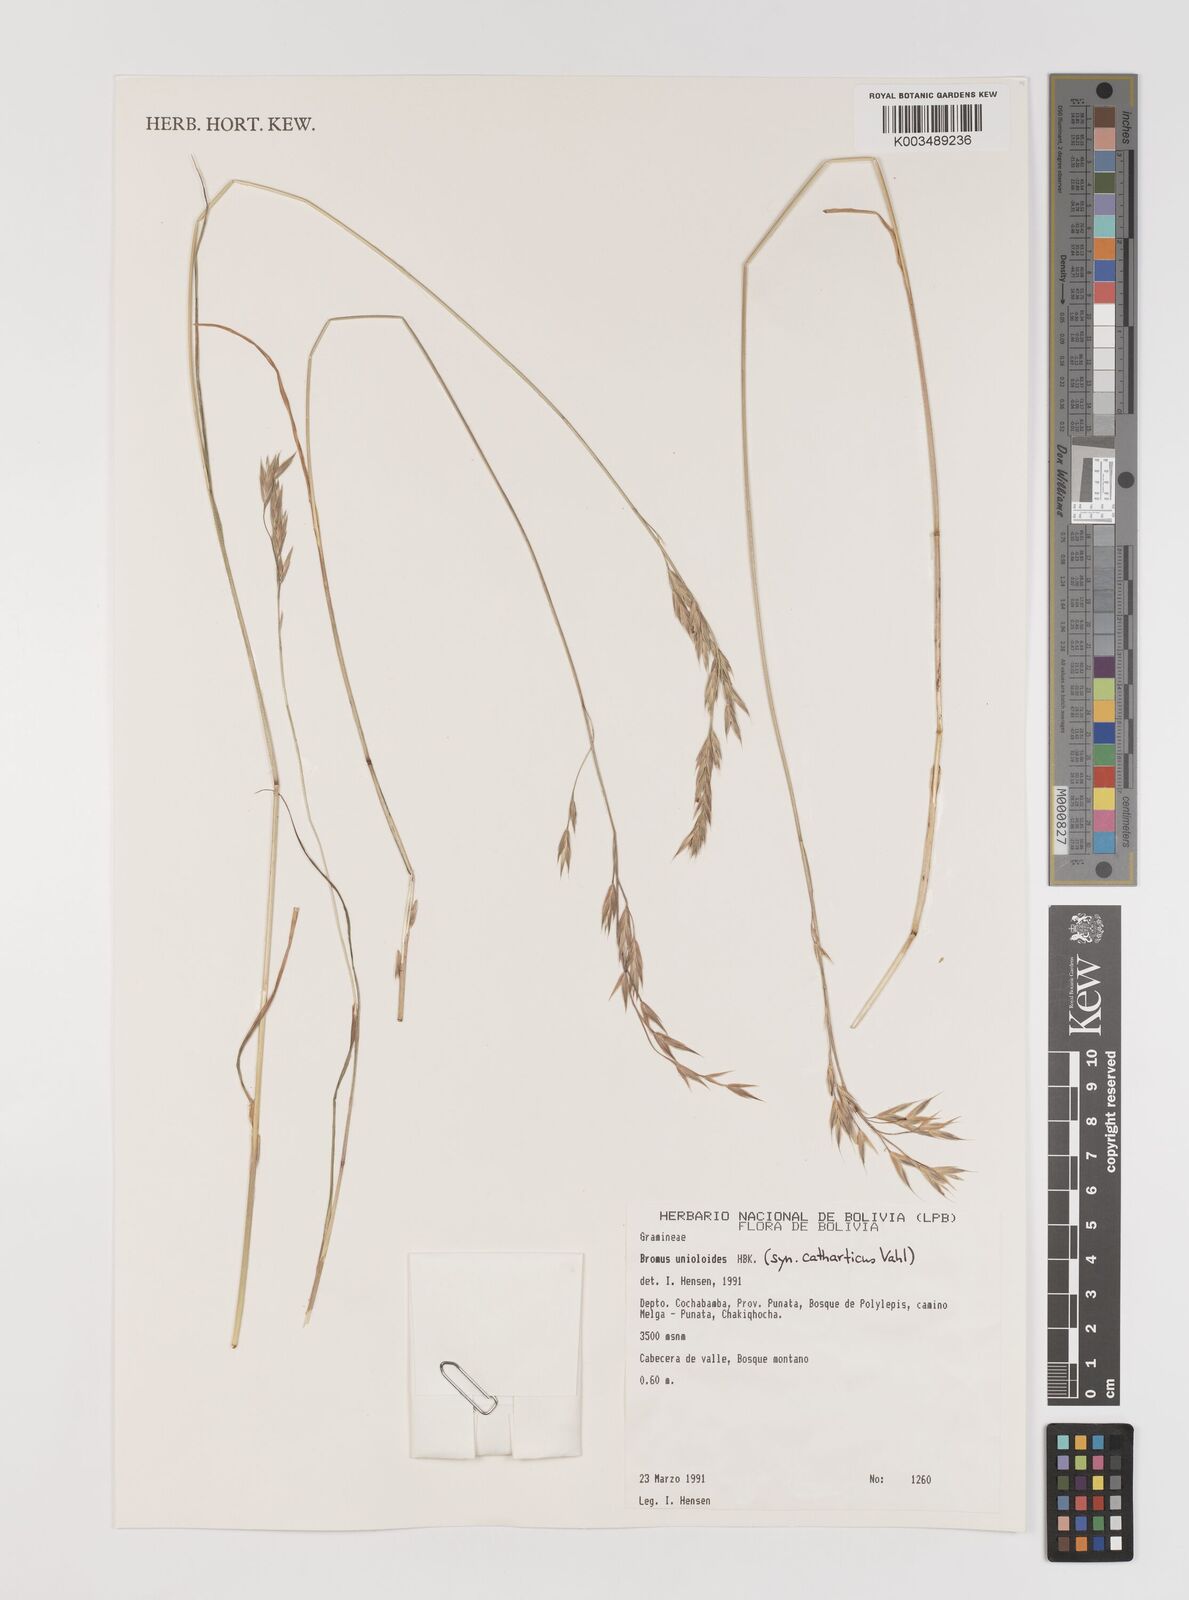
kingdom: Plantae
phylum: Tracheophyta
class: Liliopsida
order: Poales
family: Poaceae
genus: Bromus
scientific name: Bromus catharticus
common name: Rescuegrass
